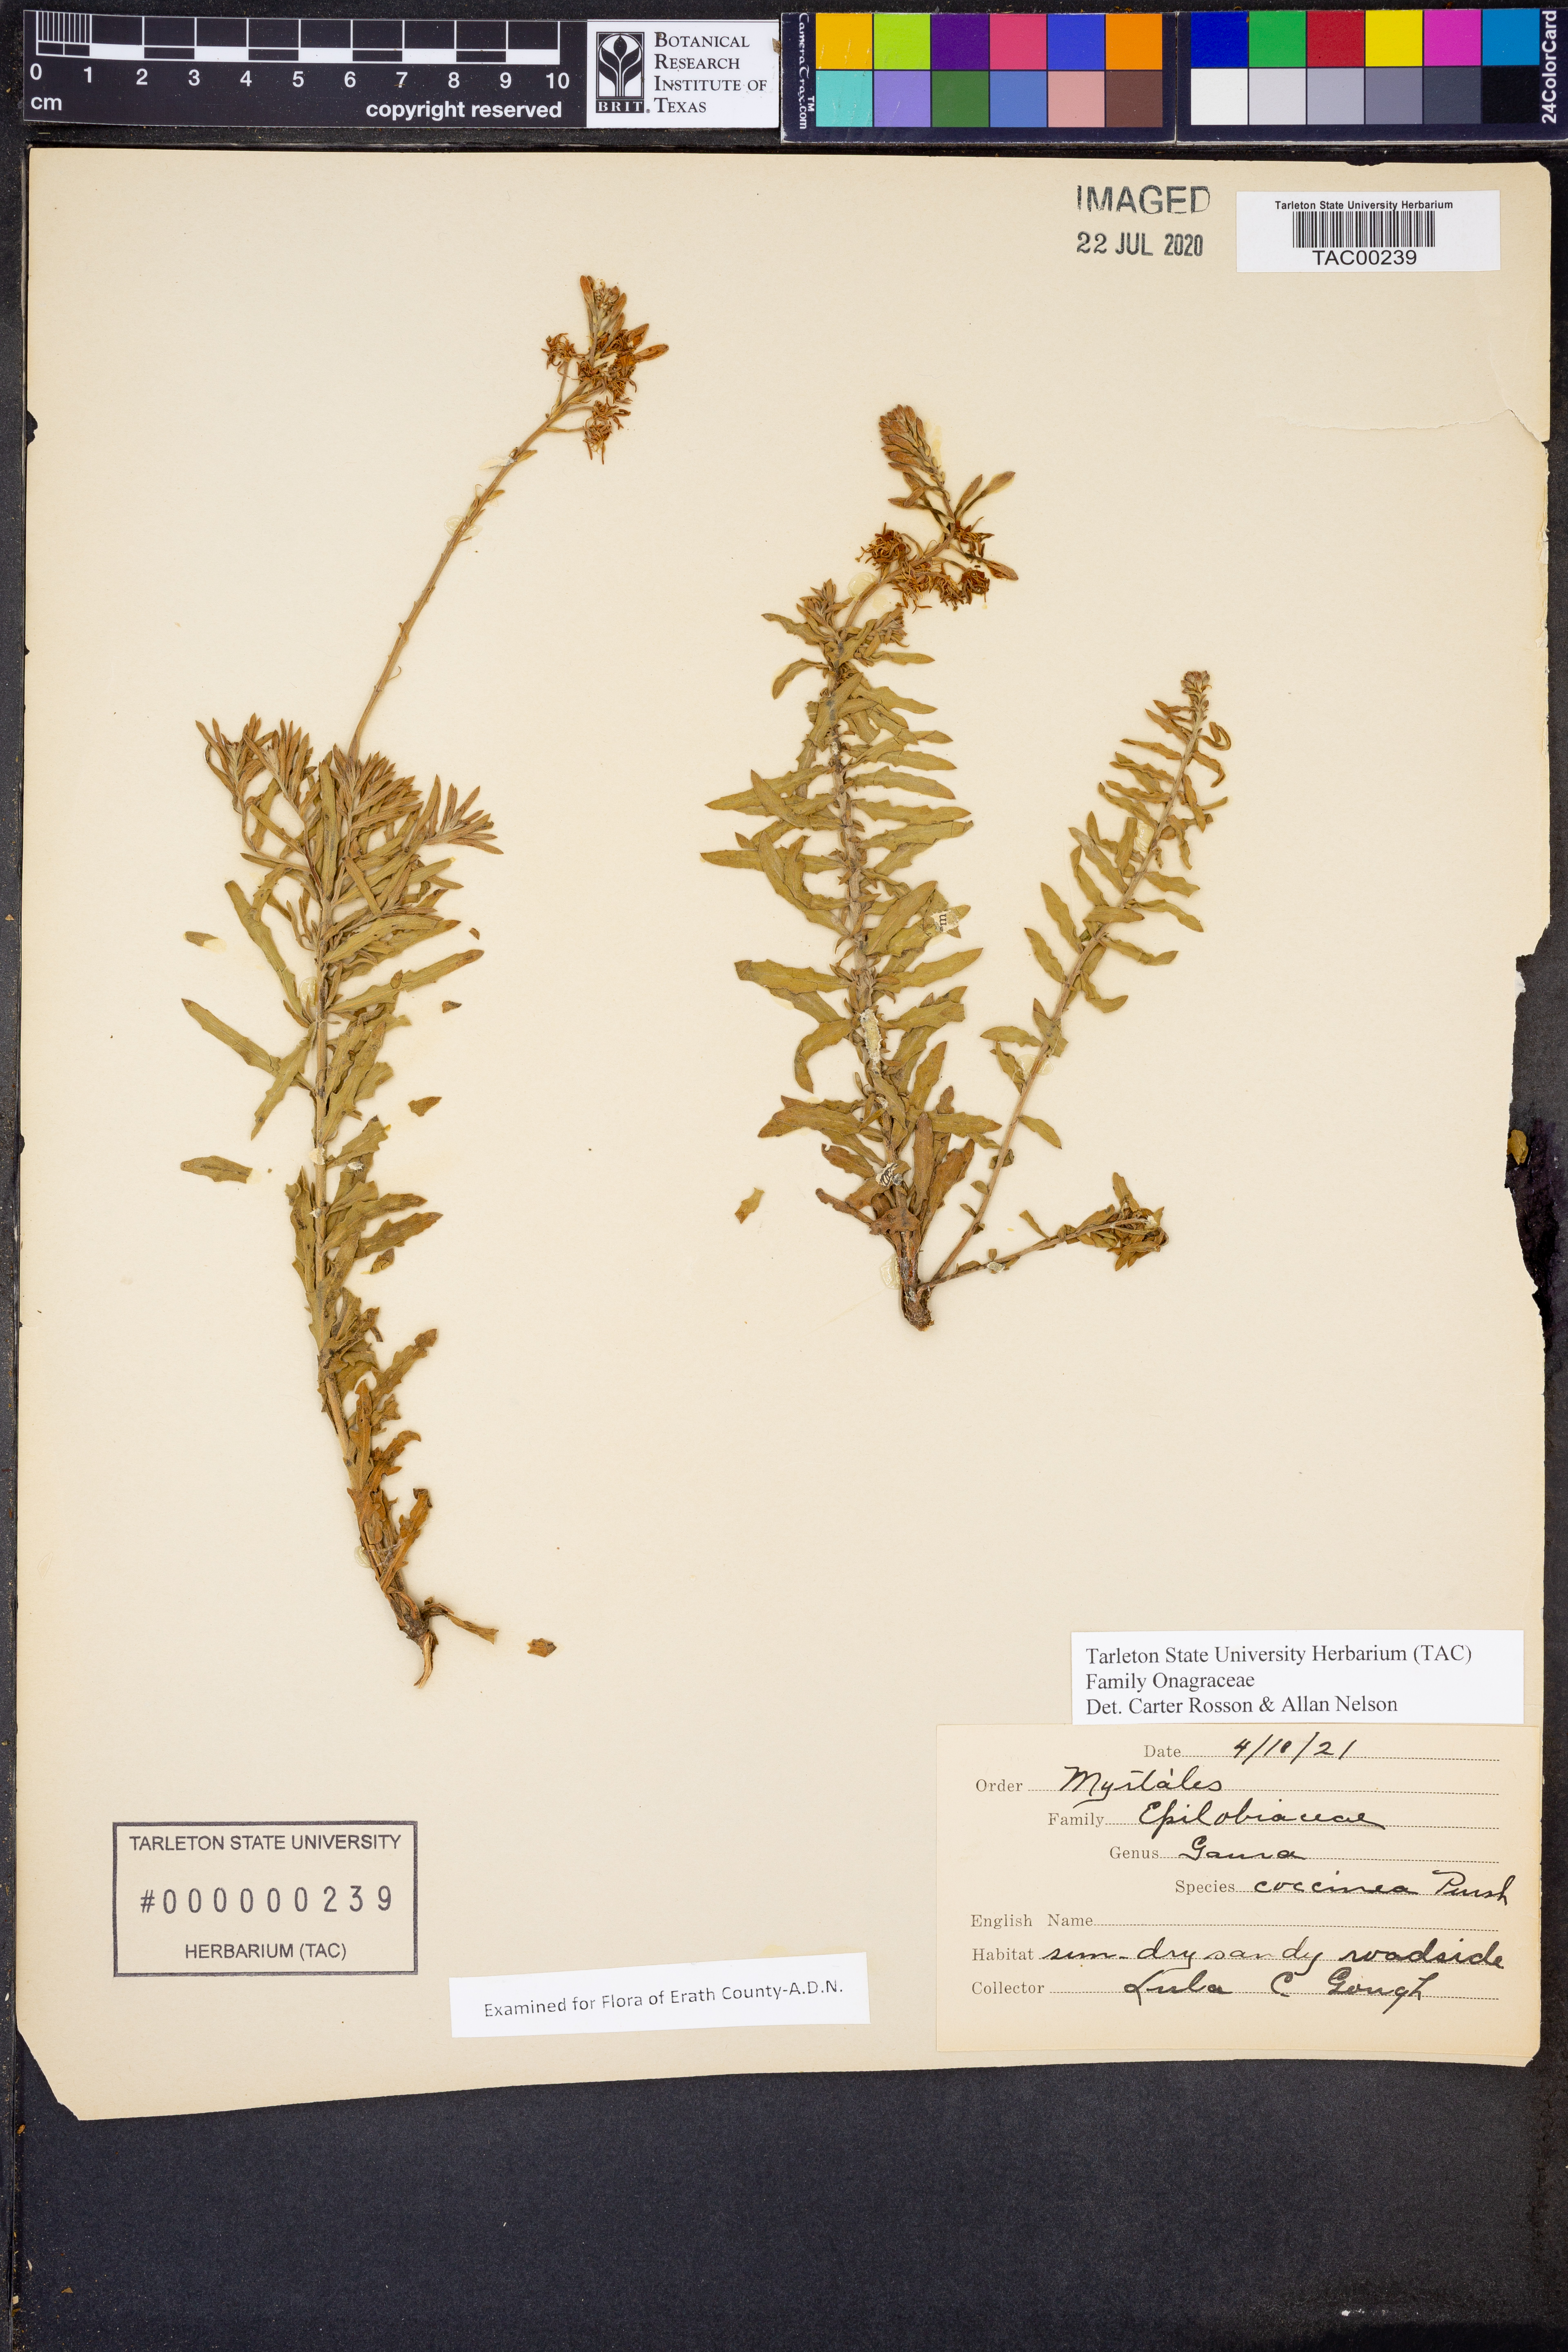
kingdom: Plantae
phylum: Tracheophyta
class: Magnoliopsida
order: Myrtales
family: Onagraceae
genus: Oenothera
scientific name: Oenothera suffrutescens
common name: Scarlet beeblossom
